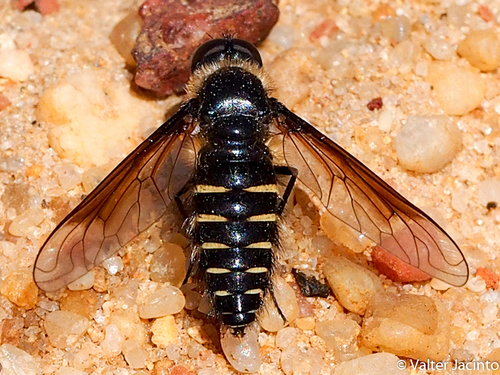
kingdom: Animalia
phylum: Arthropoda
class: Insecta
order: Diptera
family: Bombyliidae
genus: Lomatia
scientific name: Lomatia tysiphone
